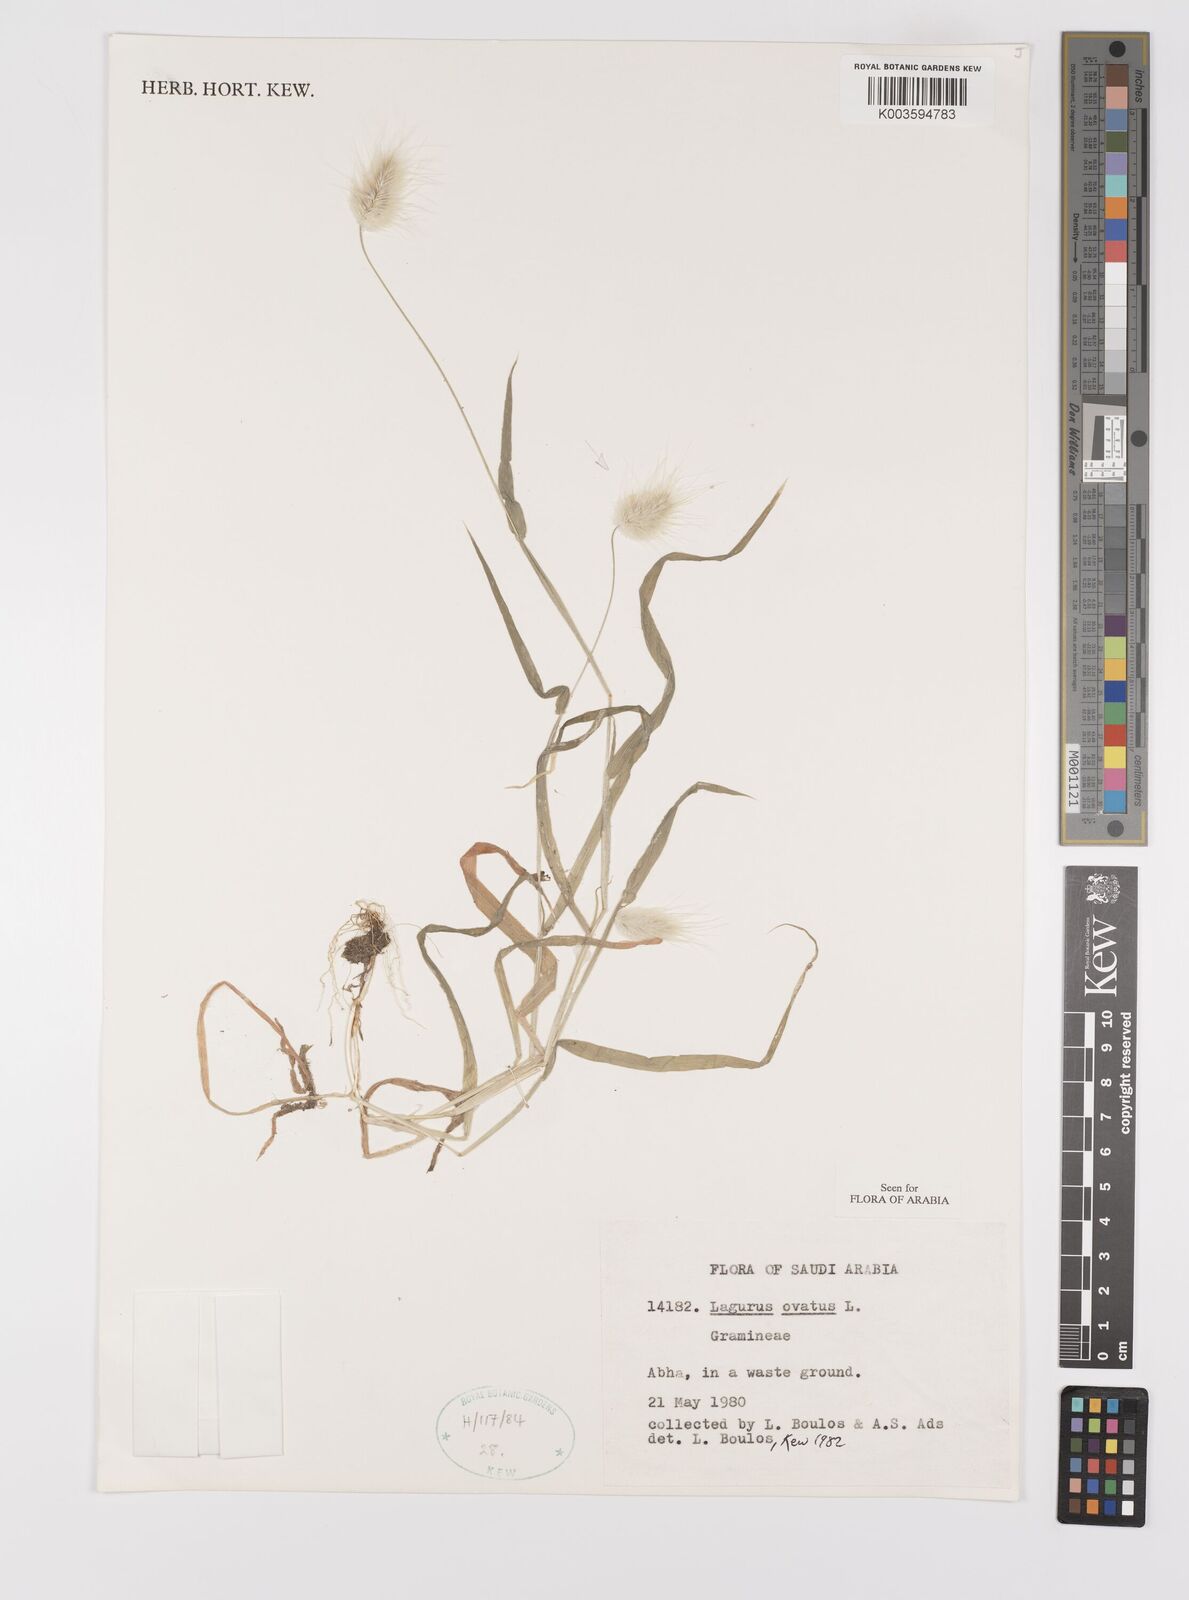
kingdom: Plantae
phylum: Tracheophyta
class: Liliopsida
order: Poales
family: Poaceae
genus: Lagurus
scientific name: Lagurus ovatus
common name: Hare's-tail
